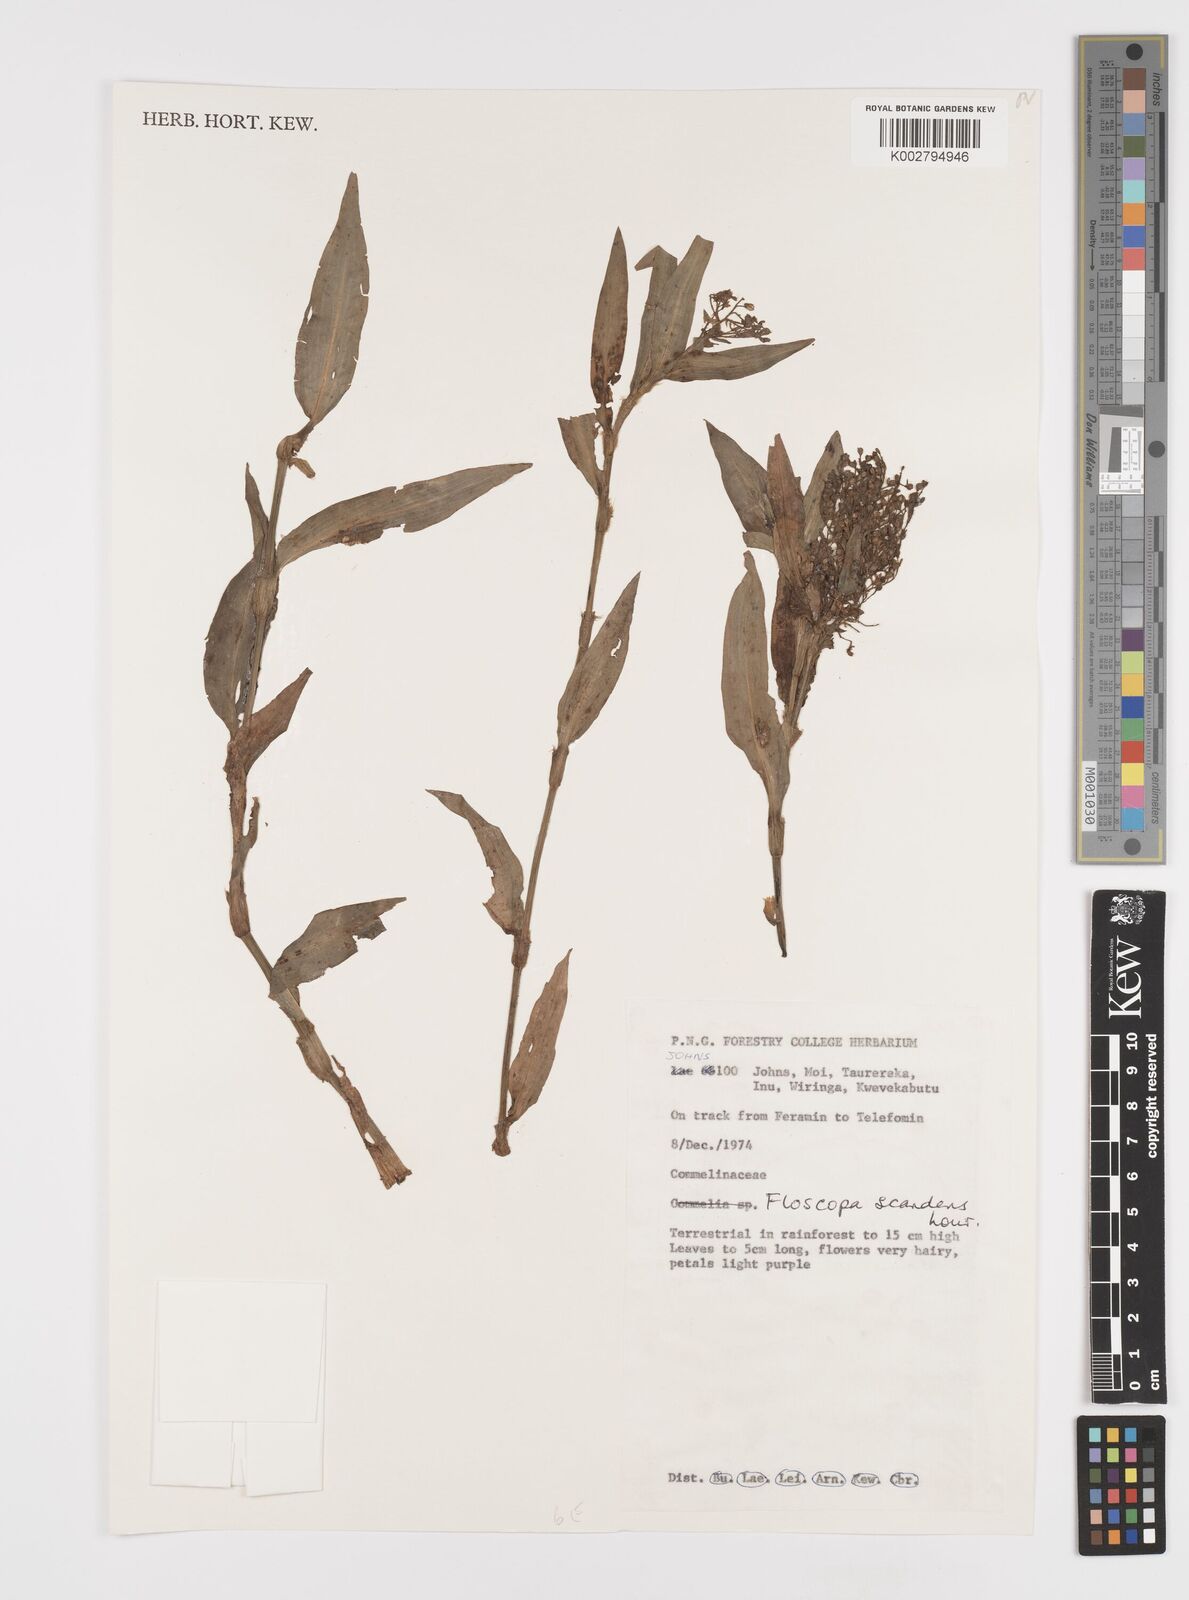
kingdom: Plantae
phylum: Tracheophyta
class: Liliopsida
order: Commelinales
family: Commelinaceae
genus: Floscopa
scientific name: Floscopa scandens
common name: Climbing flower cup
